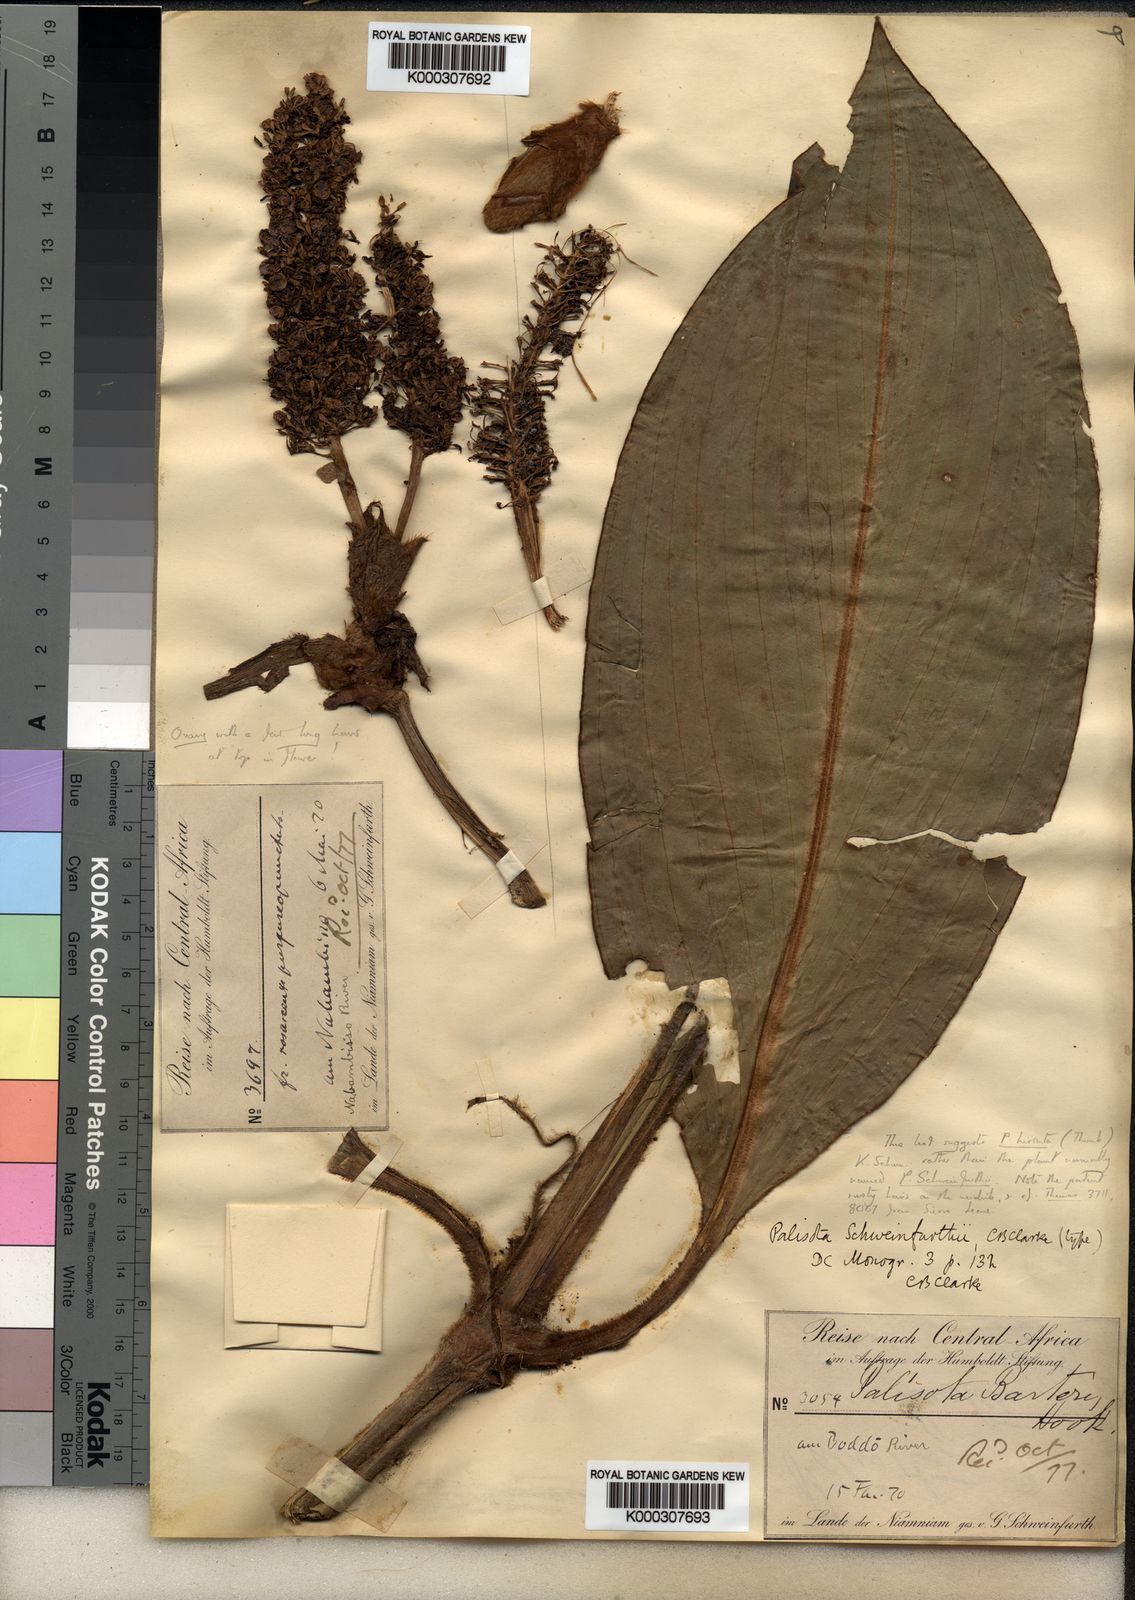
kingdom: Plantae
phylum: Tracheophyta
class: Liliopsida
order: Commelinales
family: Commelinaceae
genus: Palisota
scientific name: Palisota schweinfurthii
